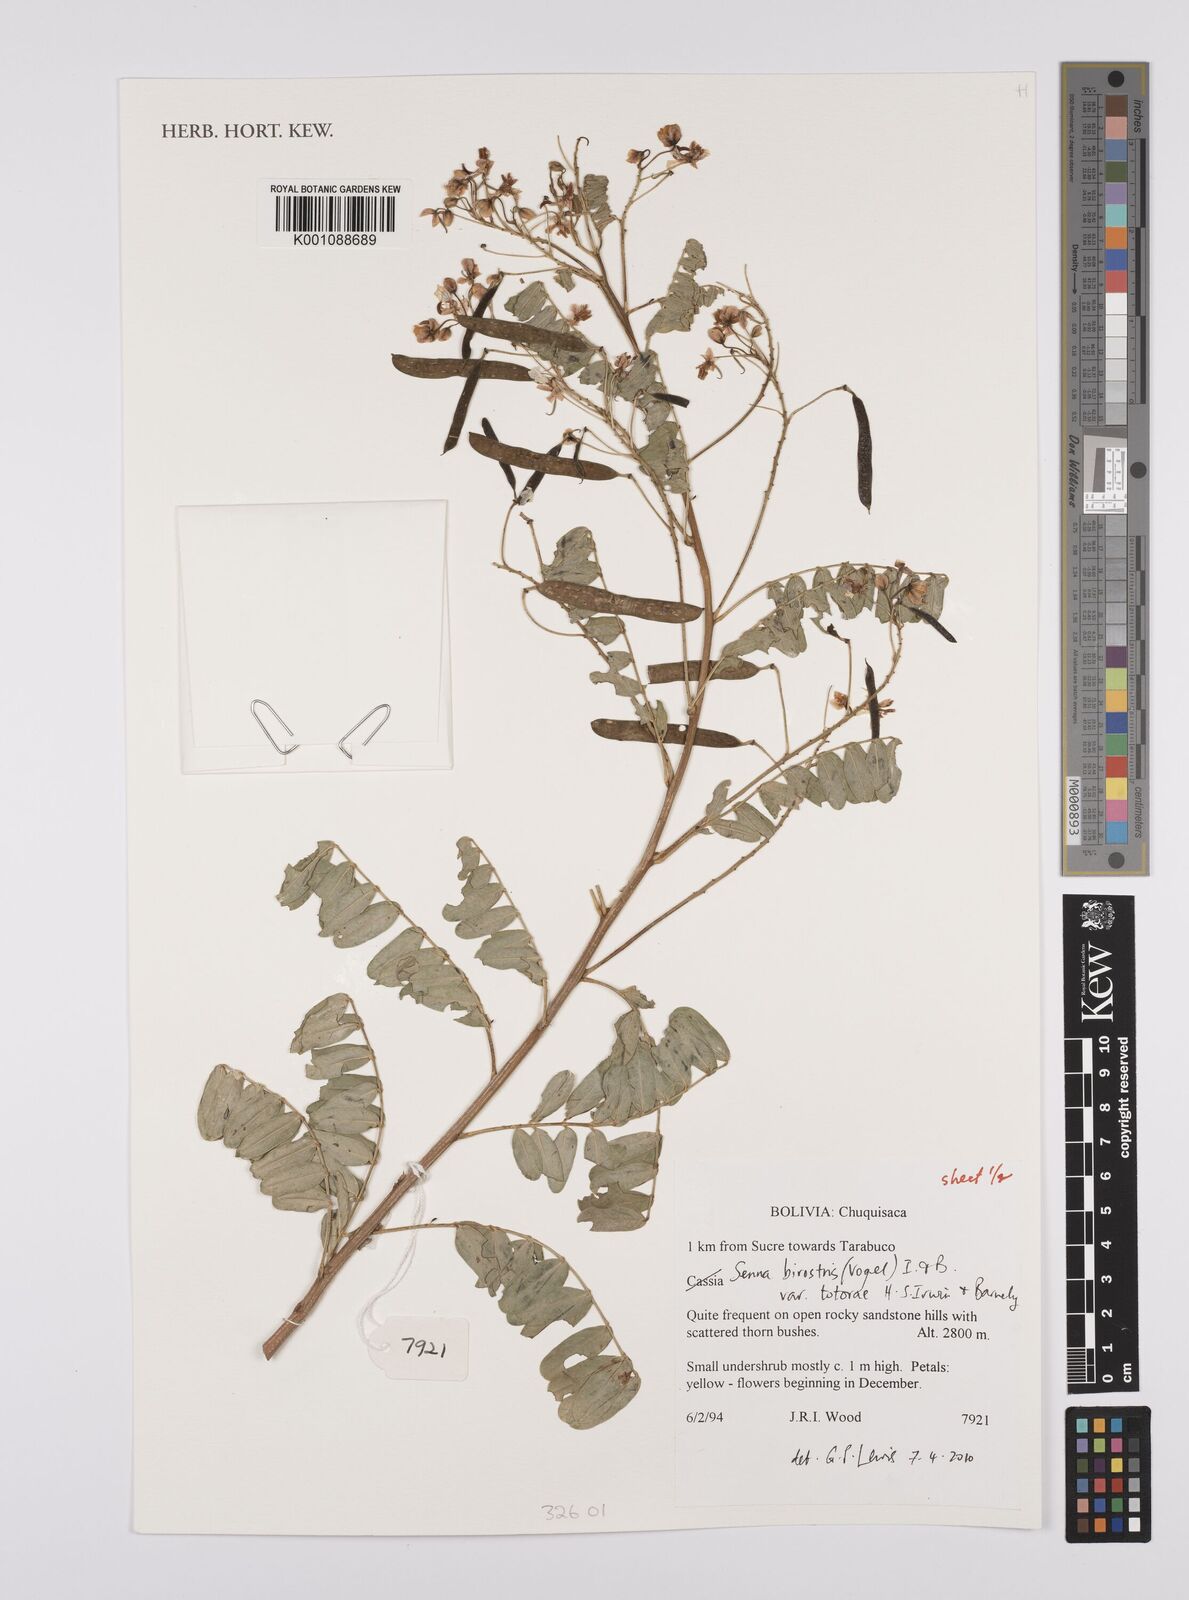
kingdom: Plantae
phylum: Tracheophyta
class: Magnoliopsida
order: Fabales
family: Fabaceae
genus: Senna
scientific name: Senna birostris
